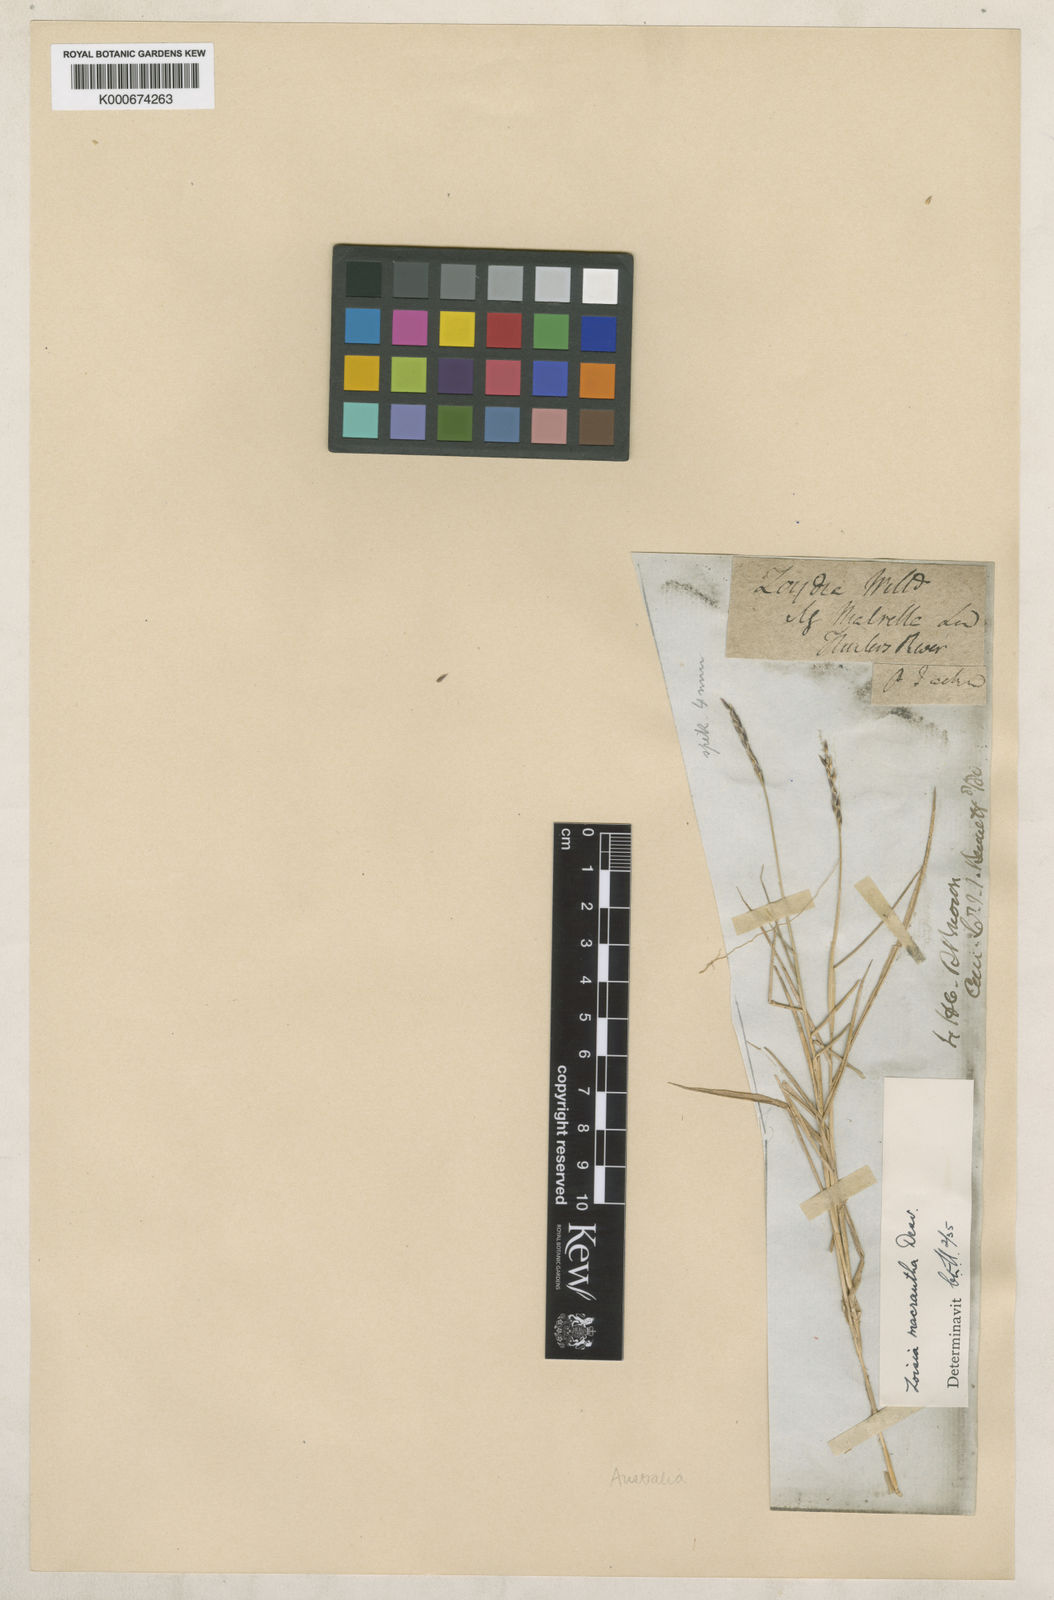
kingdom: Plantae
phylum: Tracheophyta
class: Liliopsida
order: Poales
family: Poaceae
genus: Zoysia
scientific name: Zoysia macrantha
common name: Korean lawn grass
